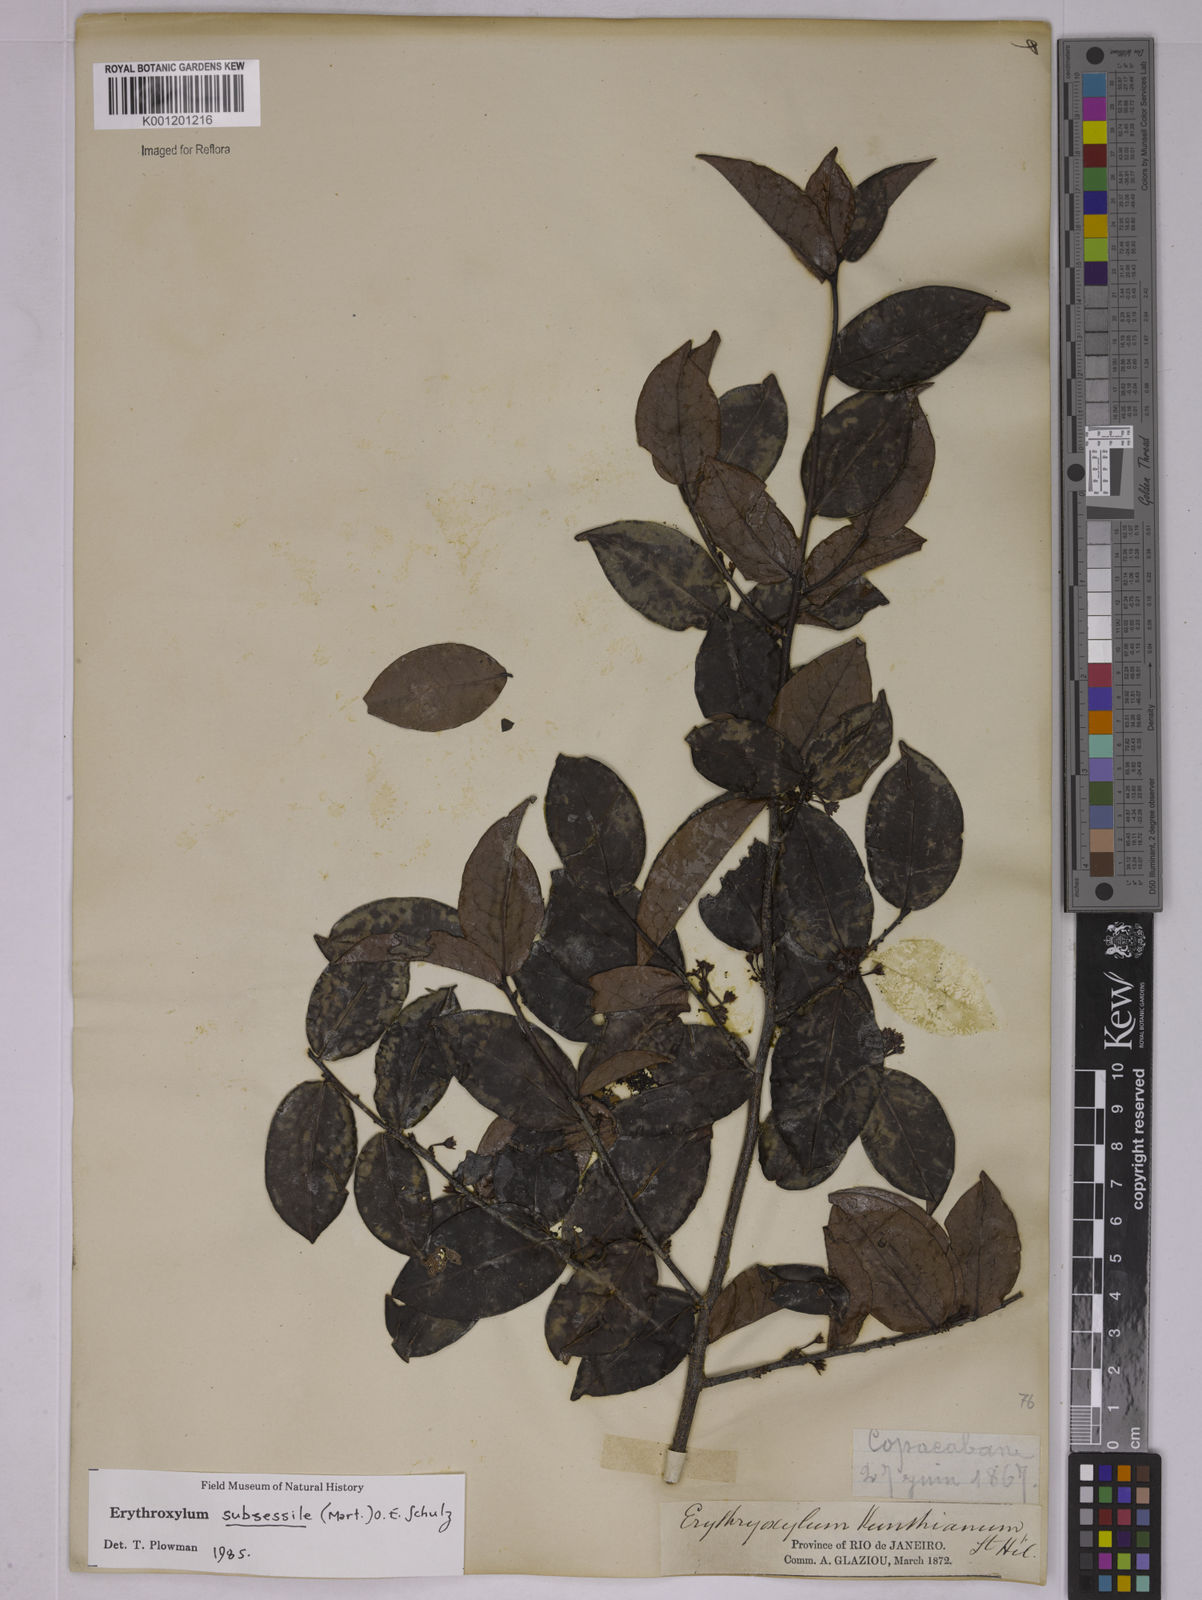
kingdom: Plantae
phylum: Tracheophyta
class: Magnoliopsida
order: Malpighiales
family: Erythroxylaceae
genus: Erythroxylum
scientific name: Erythroxylum macrocalyx
